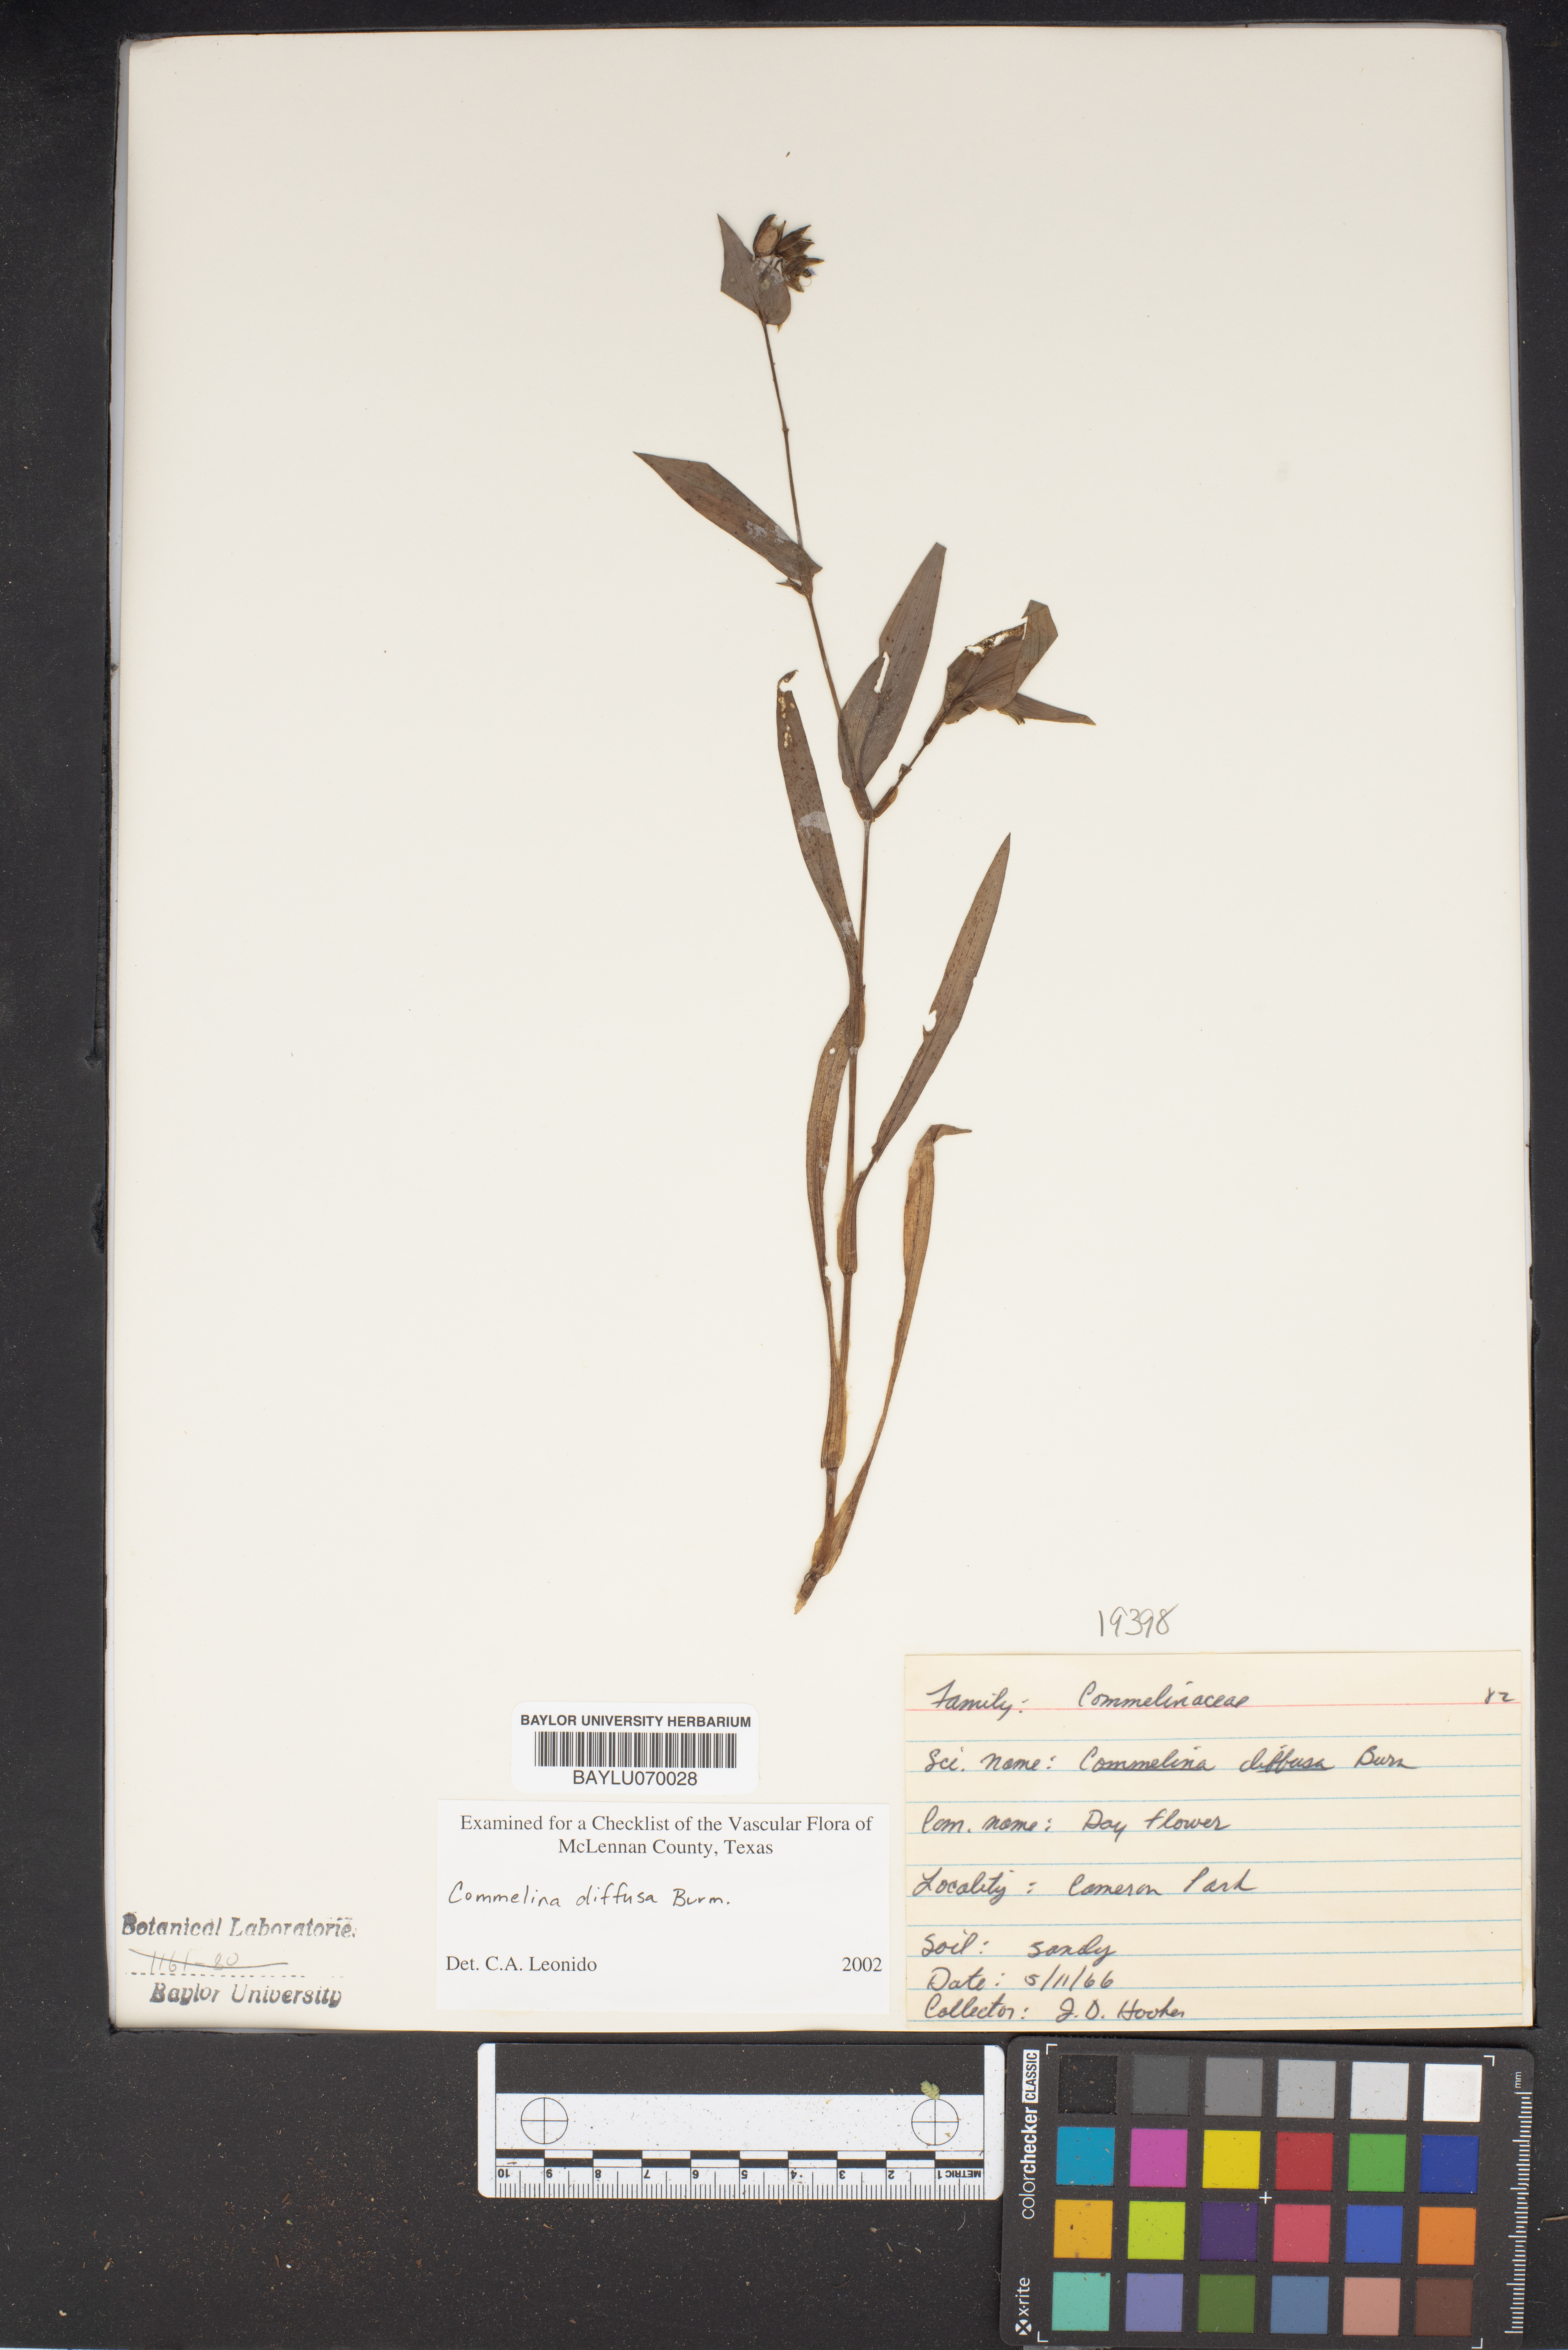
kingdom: Plantae
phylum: Tracheophyta
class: Liliopsida
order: Commelinales
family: Commelinaceae
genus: Commelina
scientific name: Commelina diffusa
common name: Climbing dayflower
